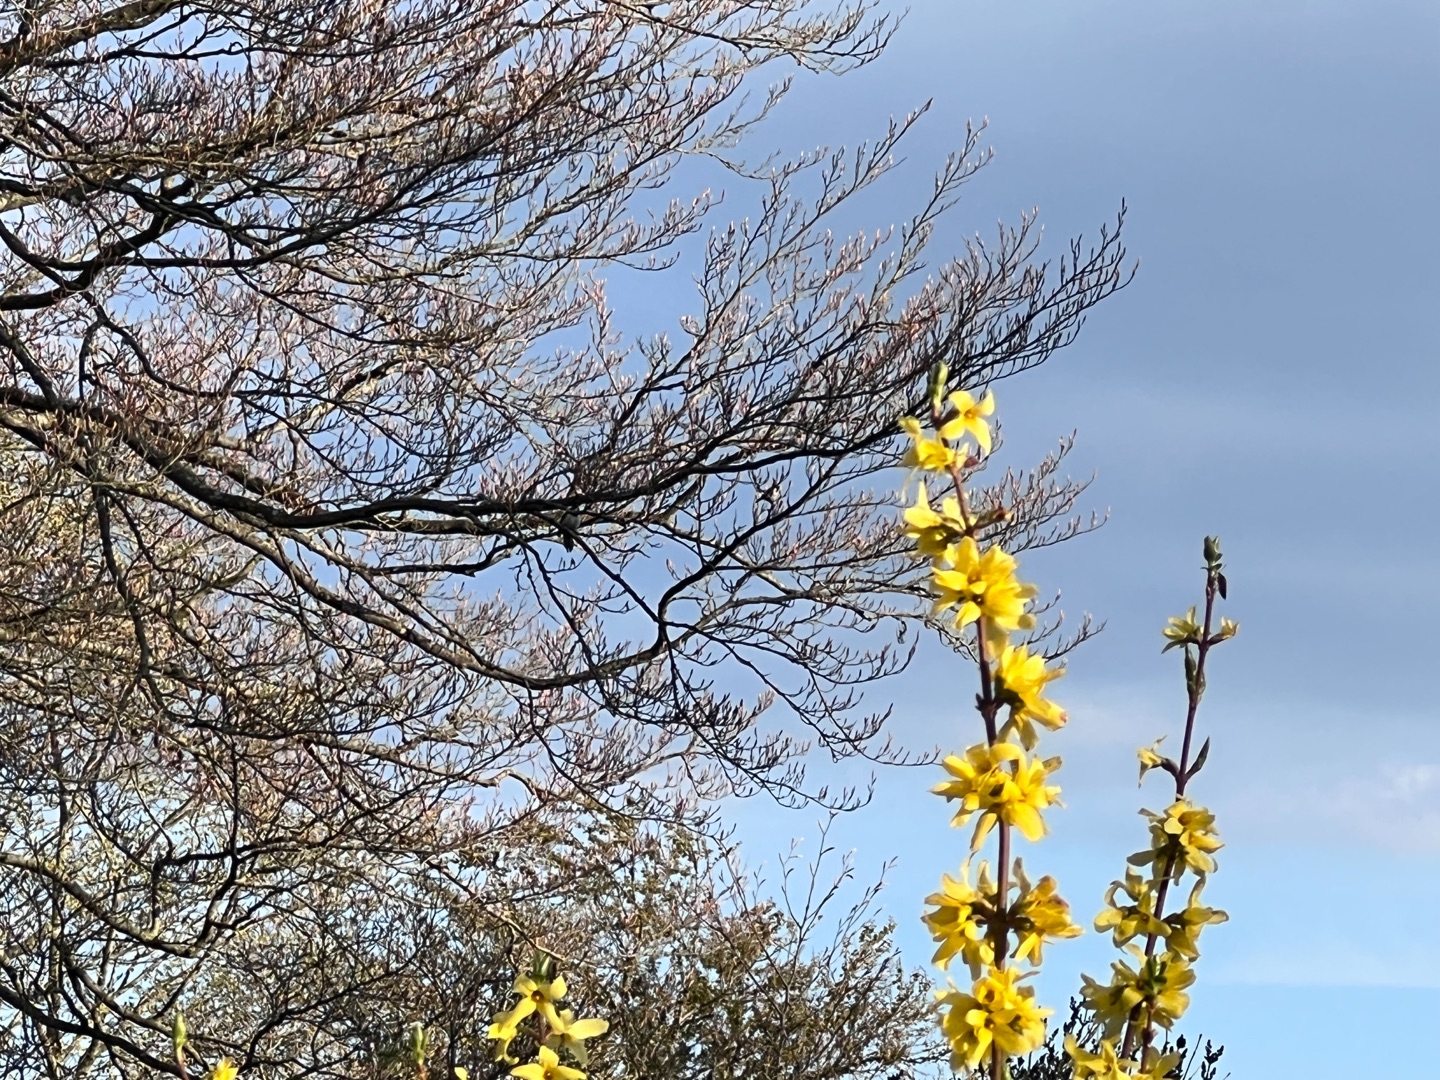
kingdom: Animalia
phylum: Chordata
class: Aves
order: Piciformes
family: Picidae
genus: Dendrocopos
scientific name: Dendrocopos major
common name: Stor flagspætte
